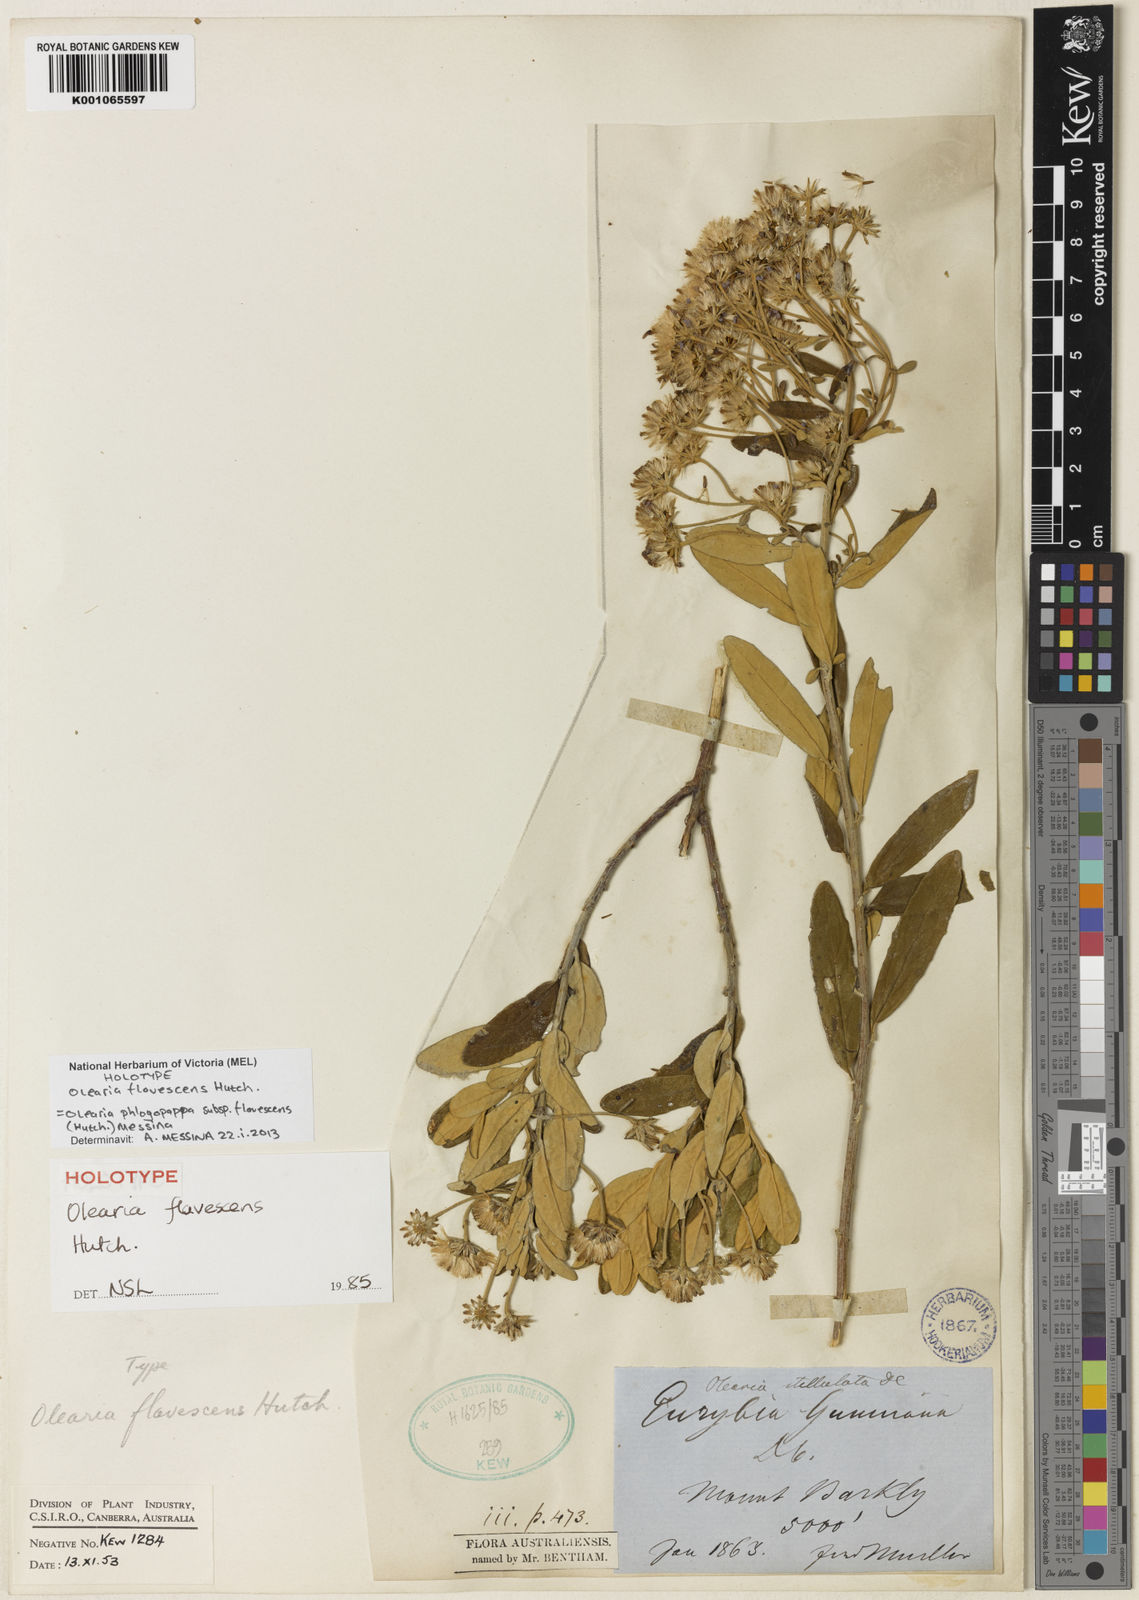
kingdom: Plantae
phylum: Tracheophyta
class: Magnoliopsida
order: Asterales
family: Asteraceae
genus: Olearia
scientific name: Olearia phlogopappa
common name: Alpine daisybush
